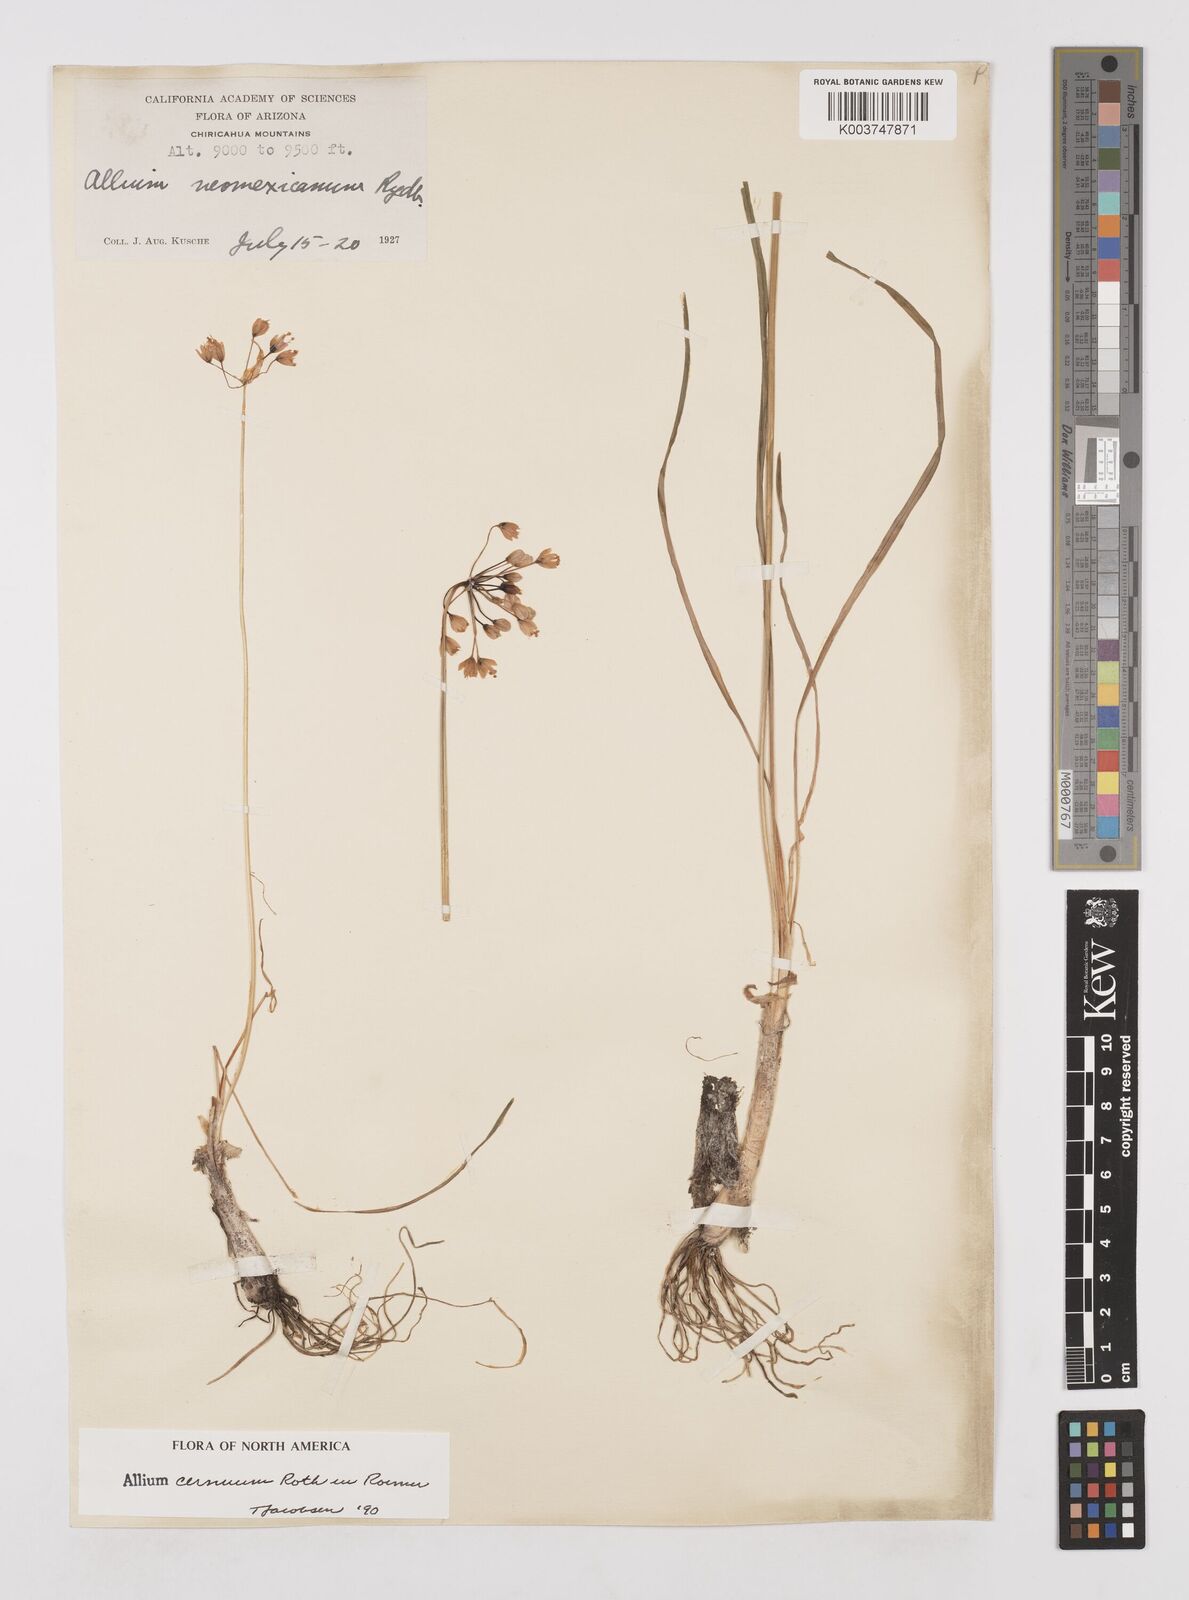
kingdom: Plantae
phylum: Tracheophyta
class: Liliopsida
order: Asparagales
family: Amaryllidaceae
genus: Allium
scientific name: Allium cernuum
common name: Nodding onion
